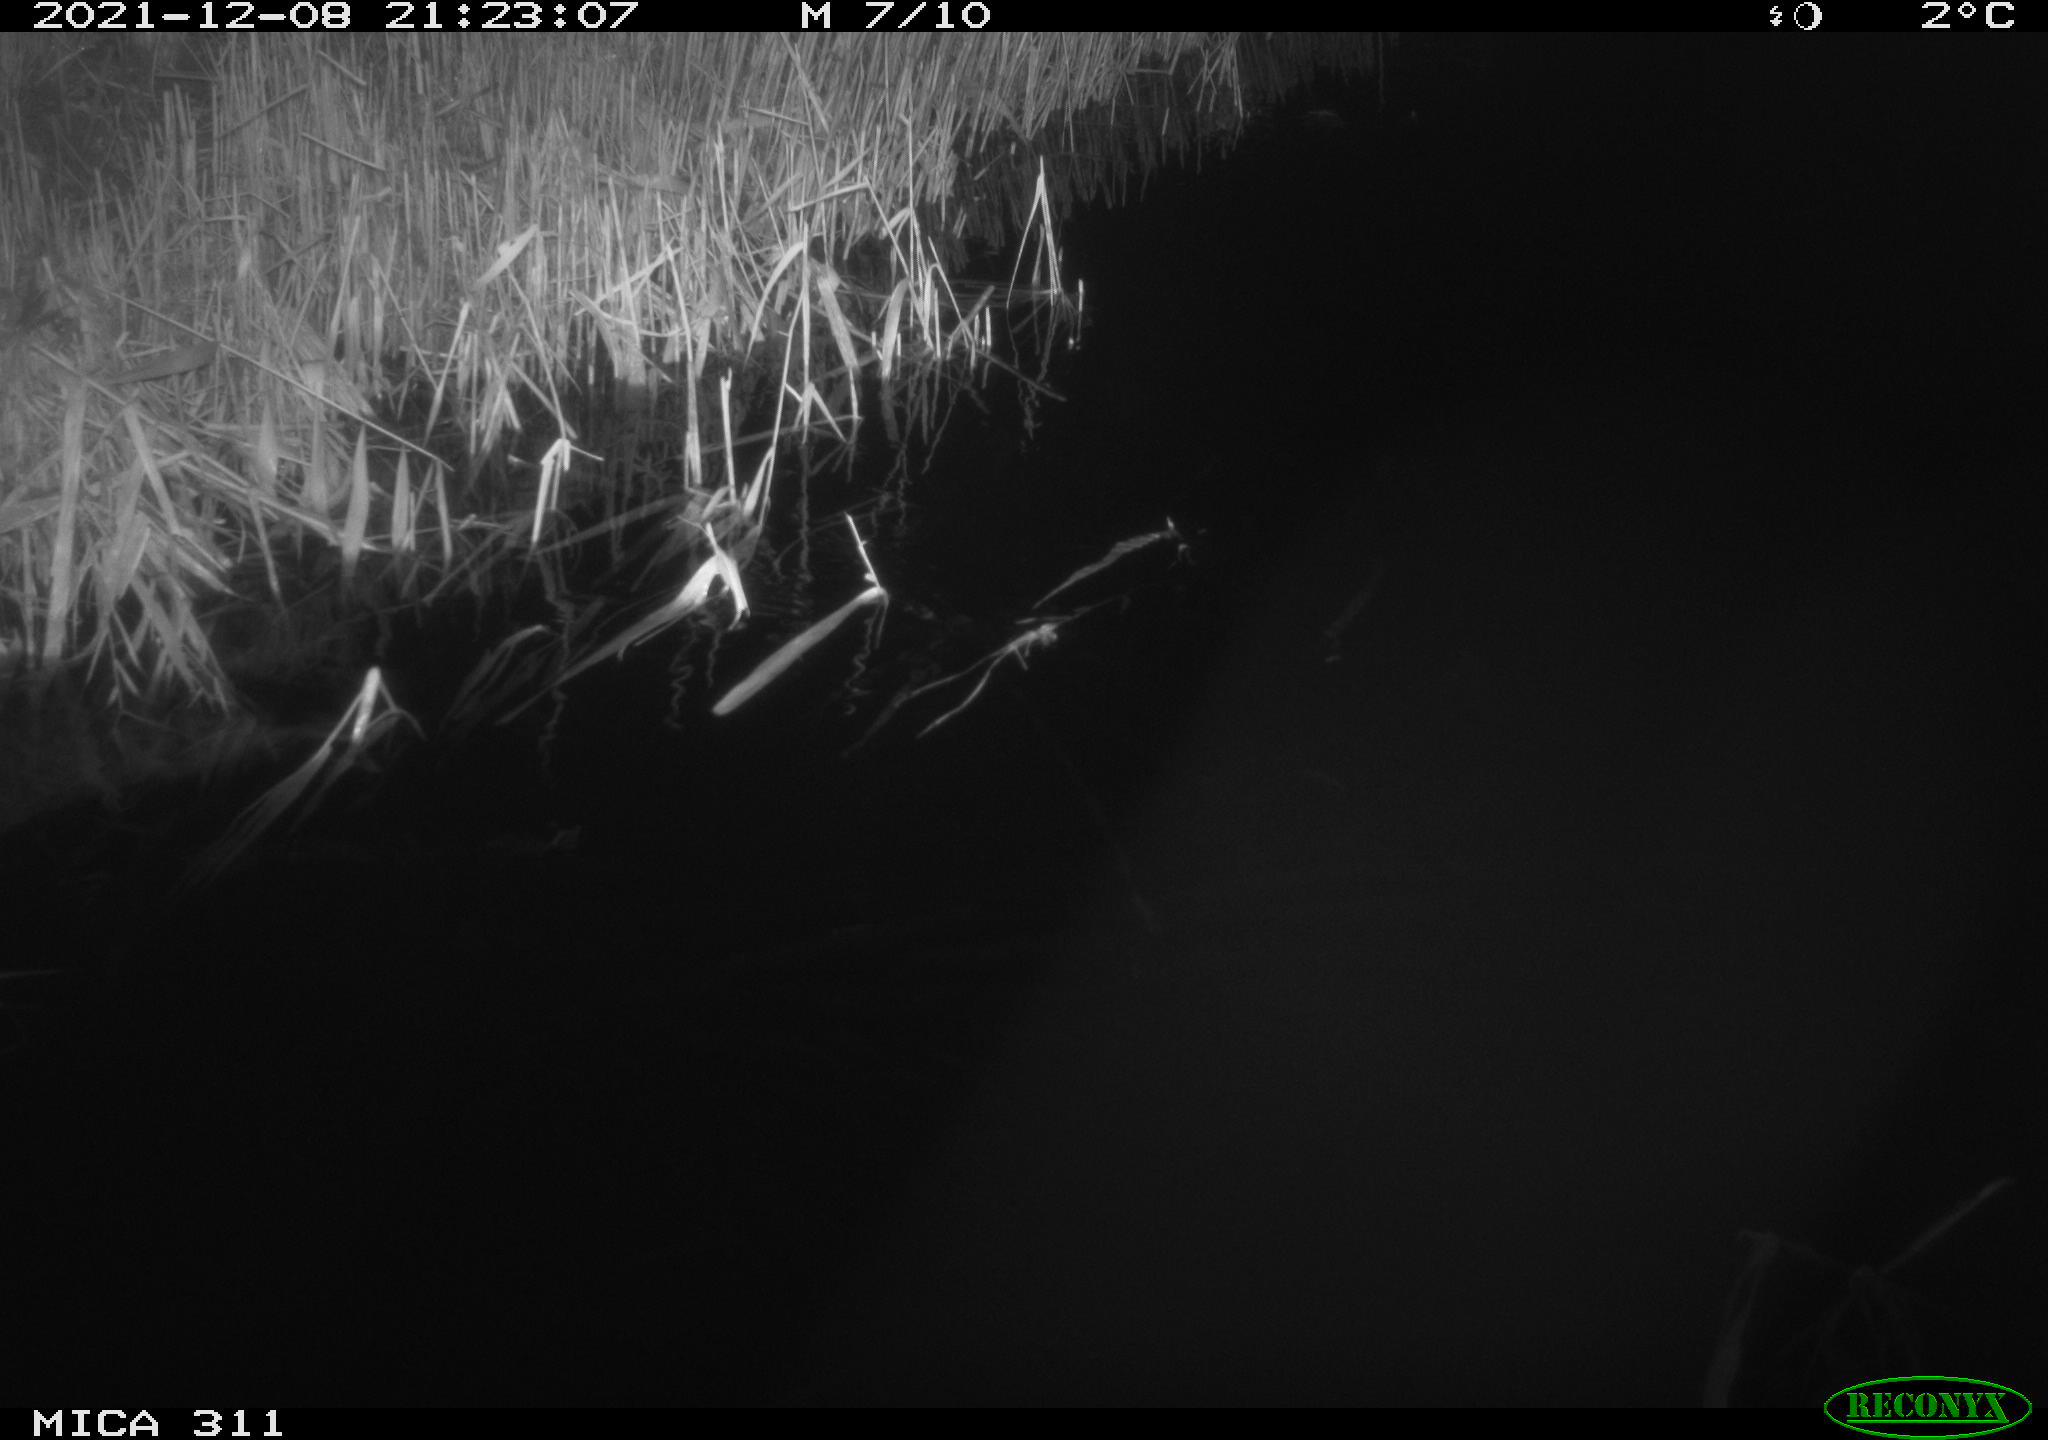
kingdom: Animalia
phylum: Chordata
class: Mammalia
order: Rodentia
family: Muridae
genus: Rattus
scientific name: Rattus norvegicus
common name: Brown rat
